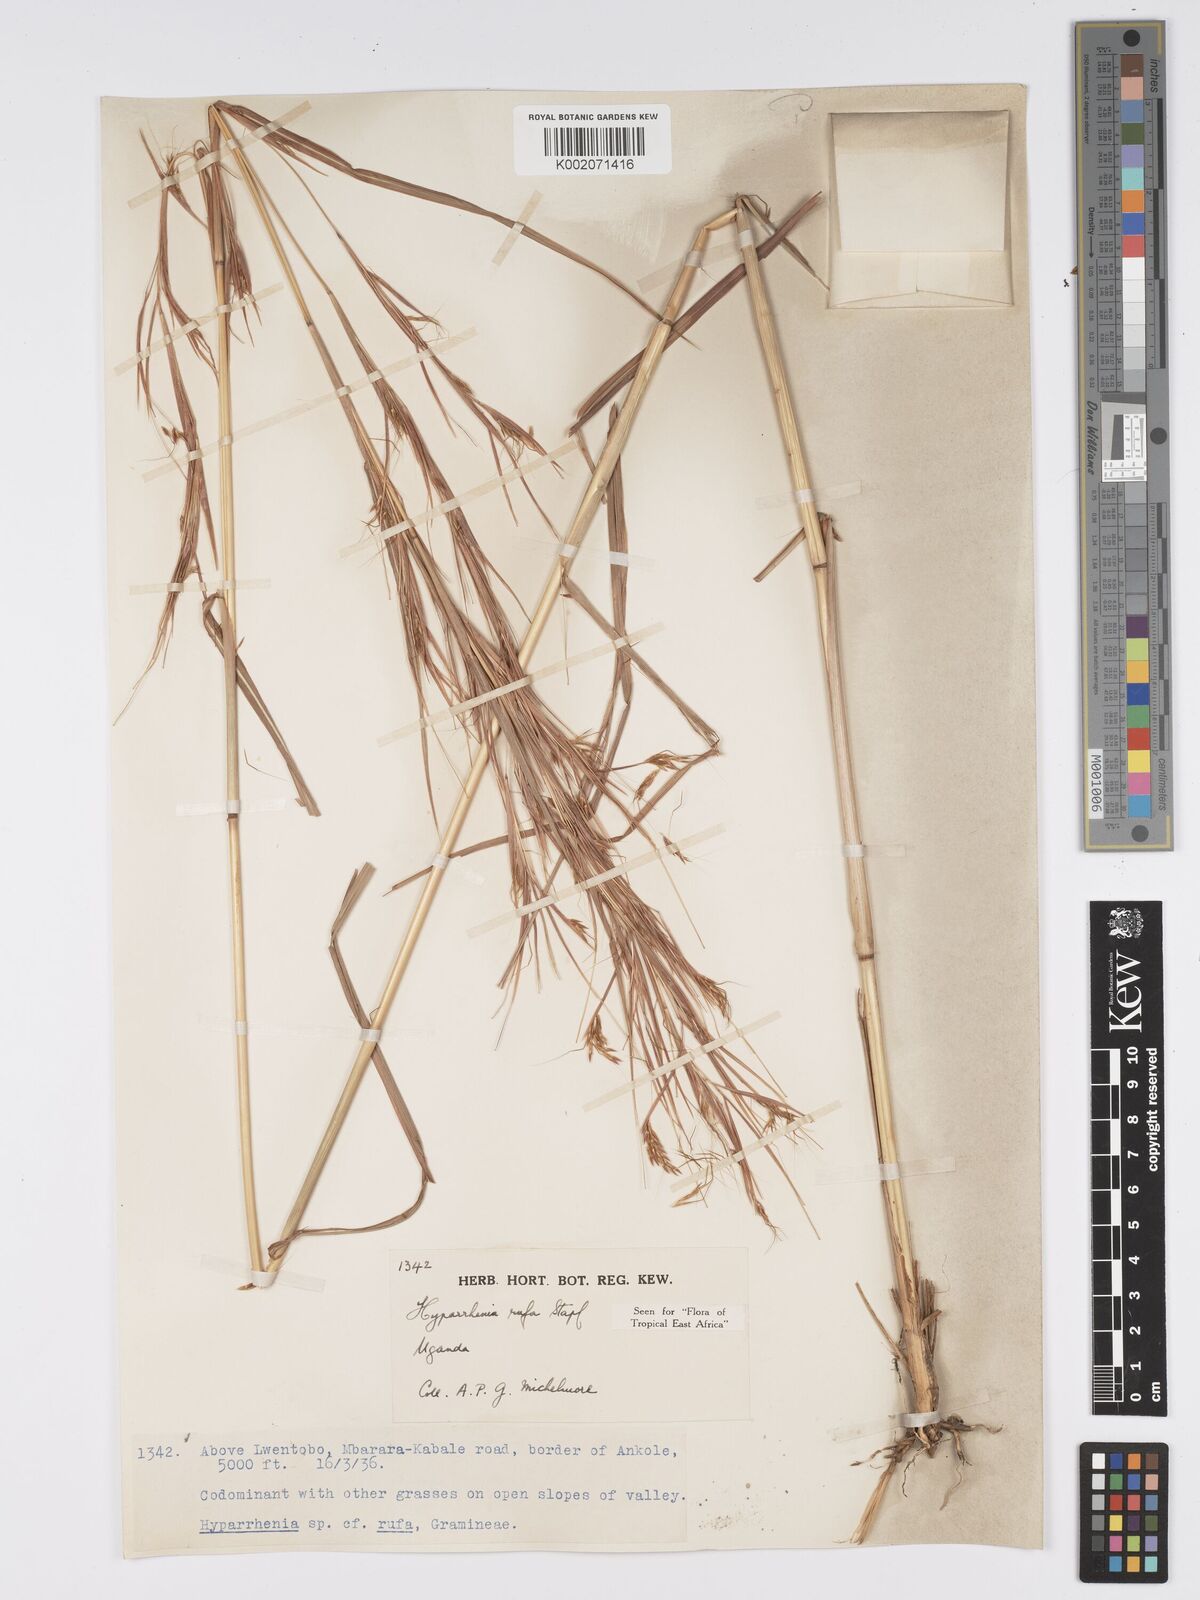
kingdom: Plantae
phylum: Tracheophyta
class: Liliopsida
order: Poales
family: Poaceae
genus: Hyparrhenia
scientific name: Hyparrhenia rufa
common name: Jaraguagrass
